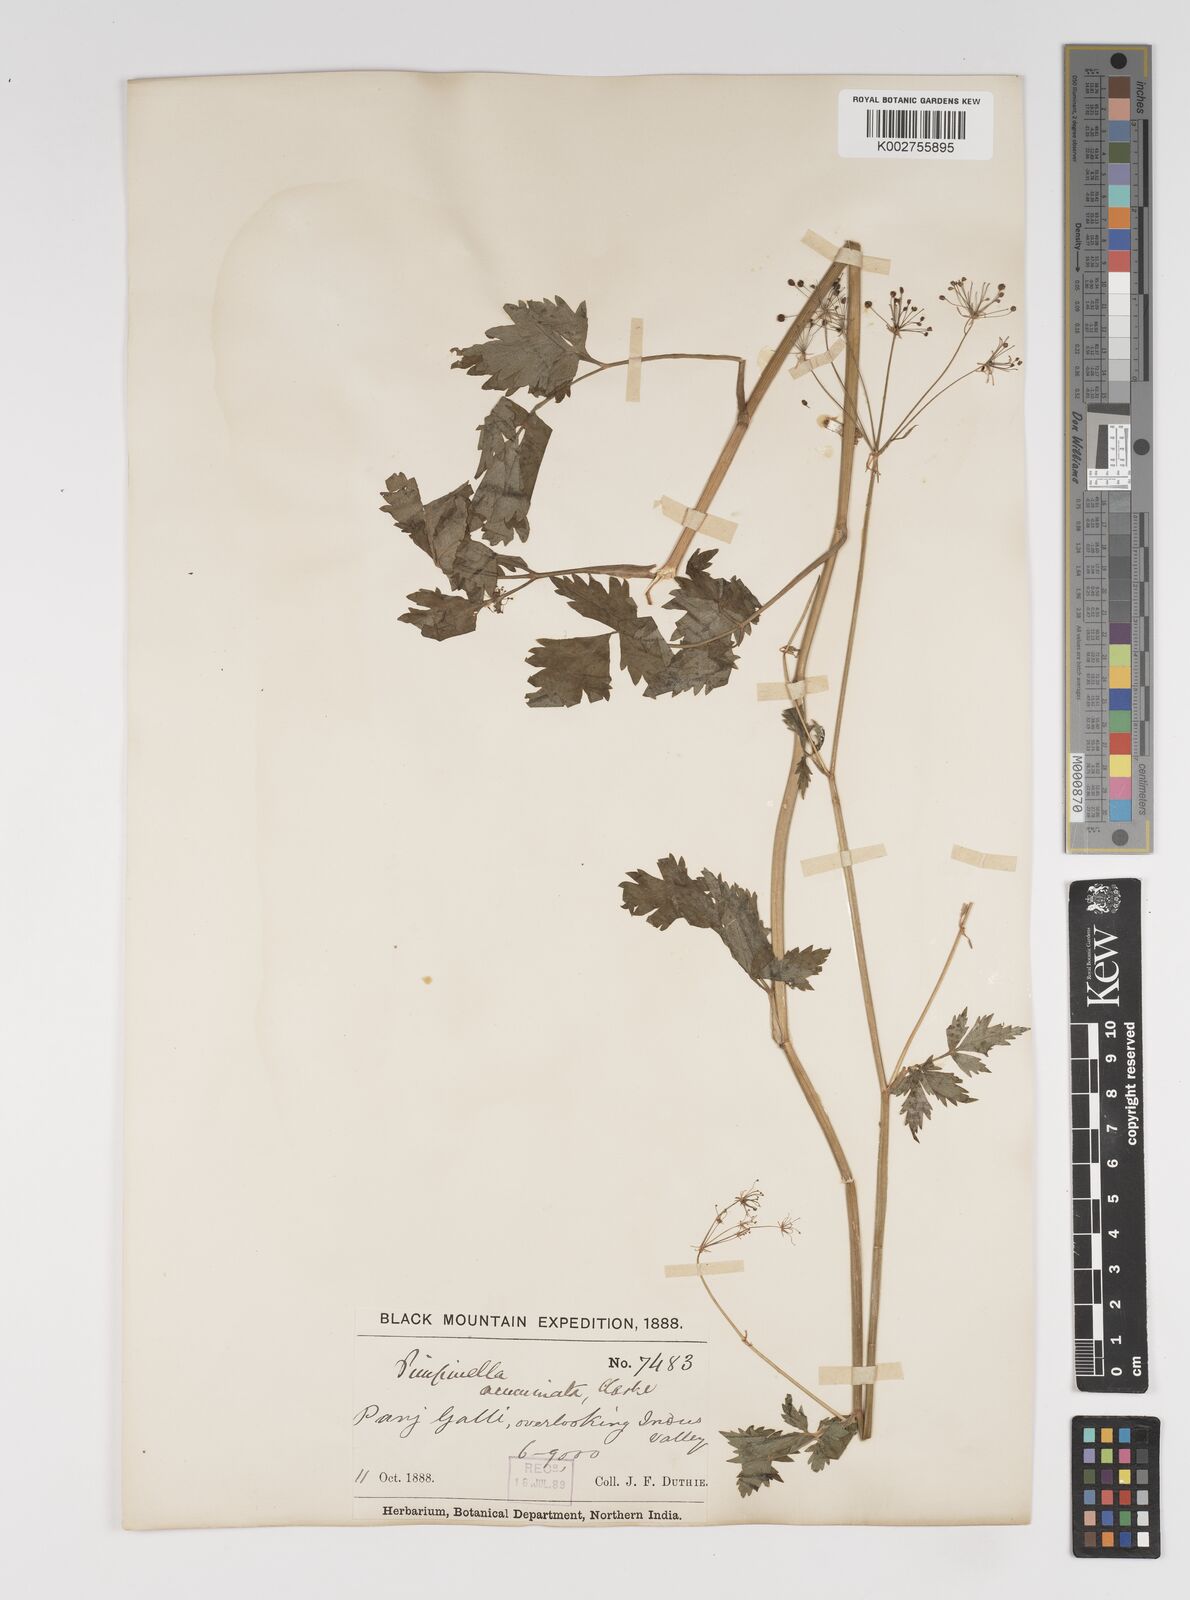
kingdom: Plantae
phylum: Tracheophyta
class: Magnoliopsida
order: Apiales
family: Apiaceae
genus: Pimpinella
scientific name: Pimpinella acuminata
